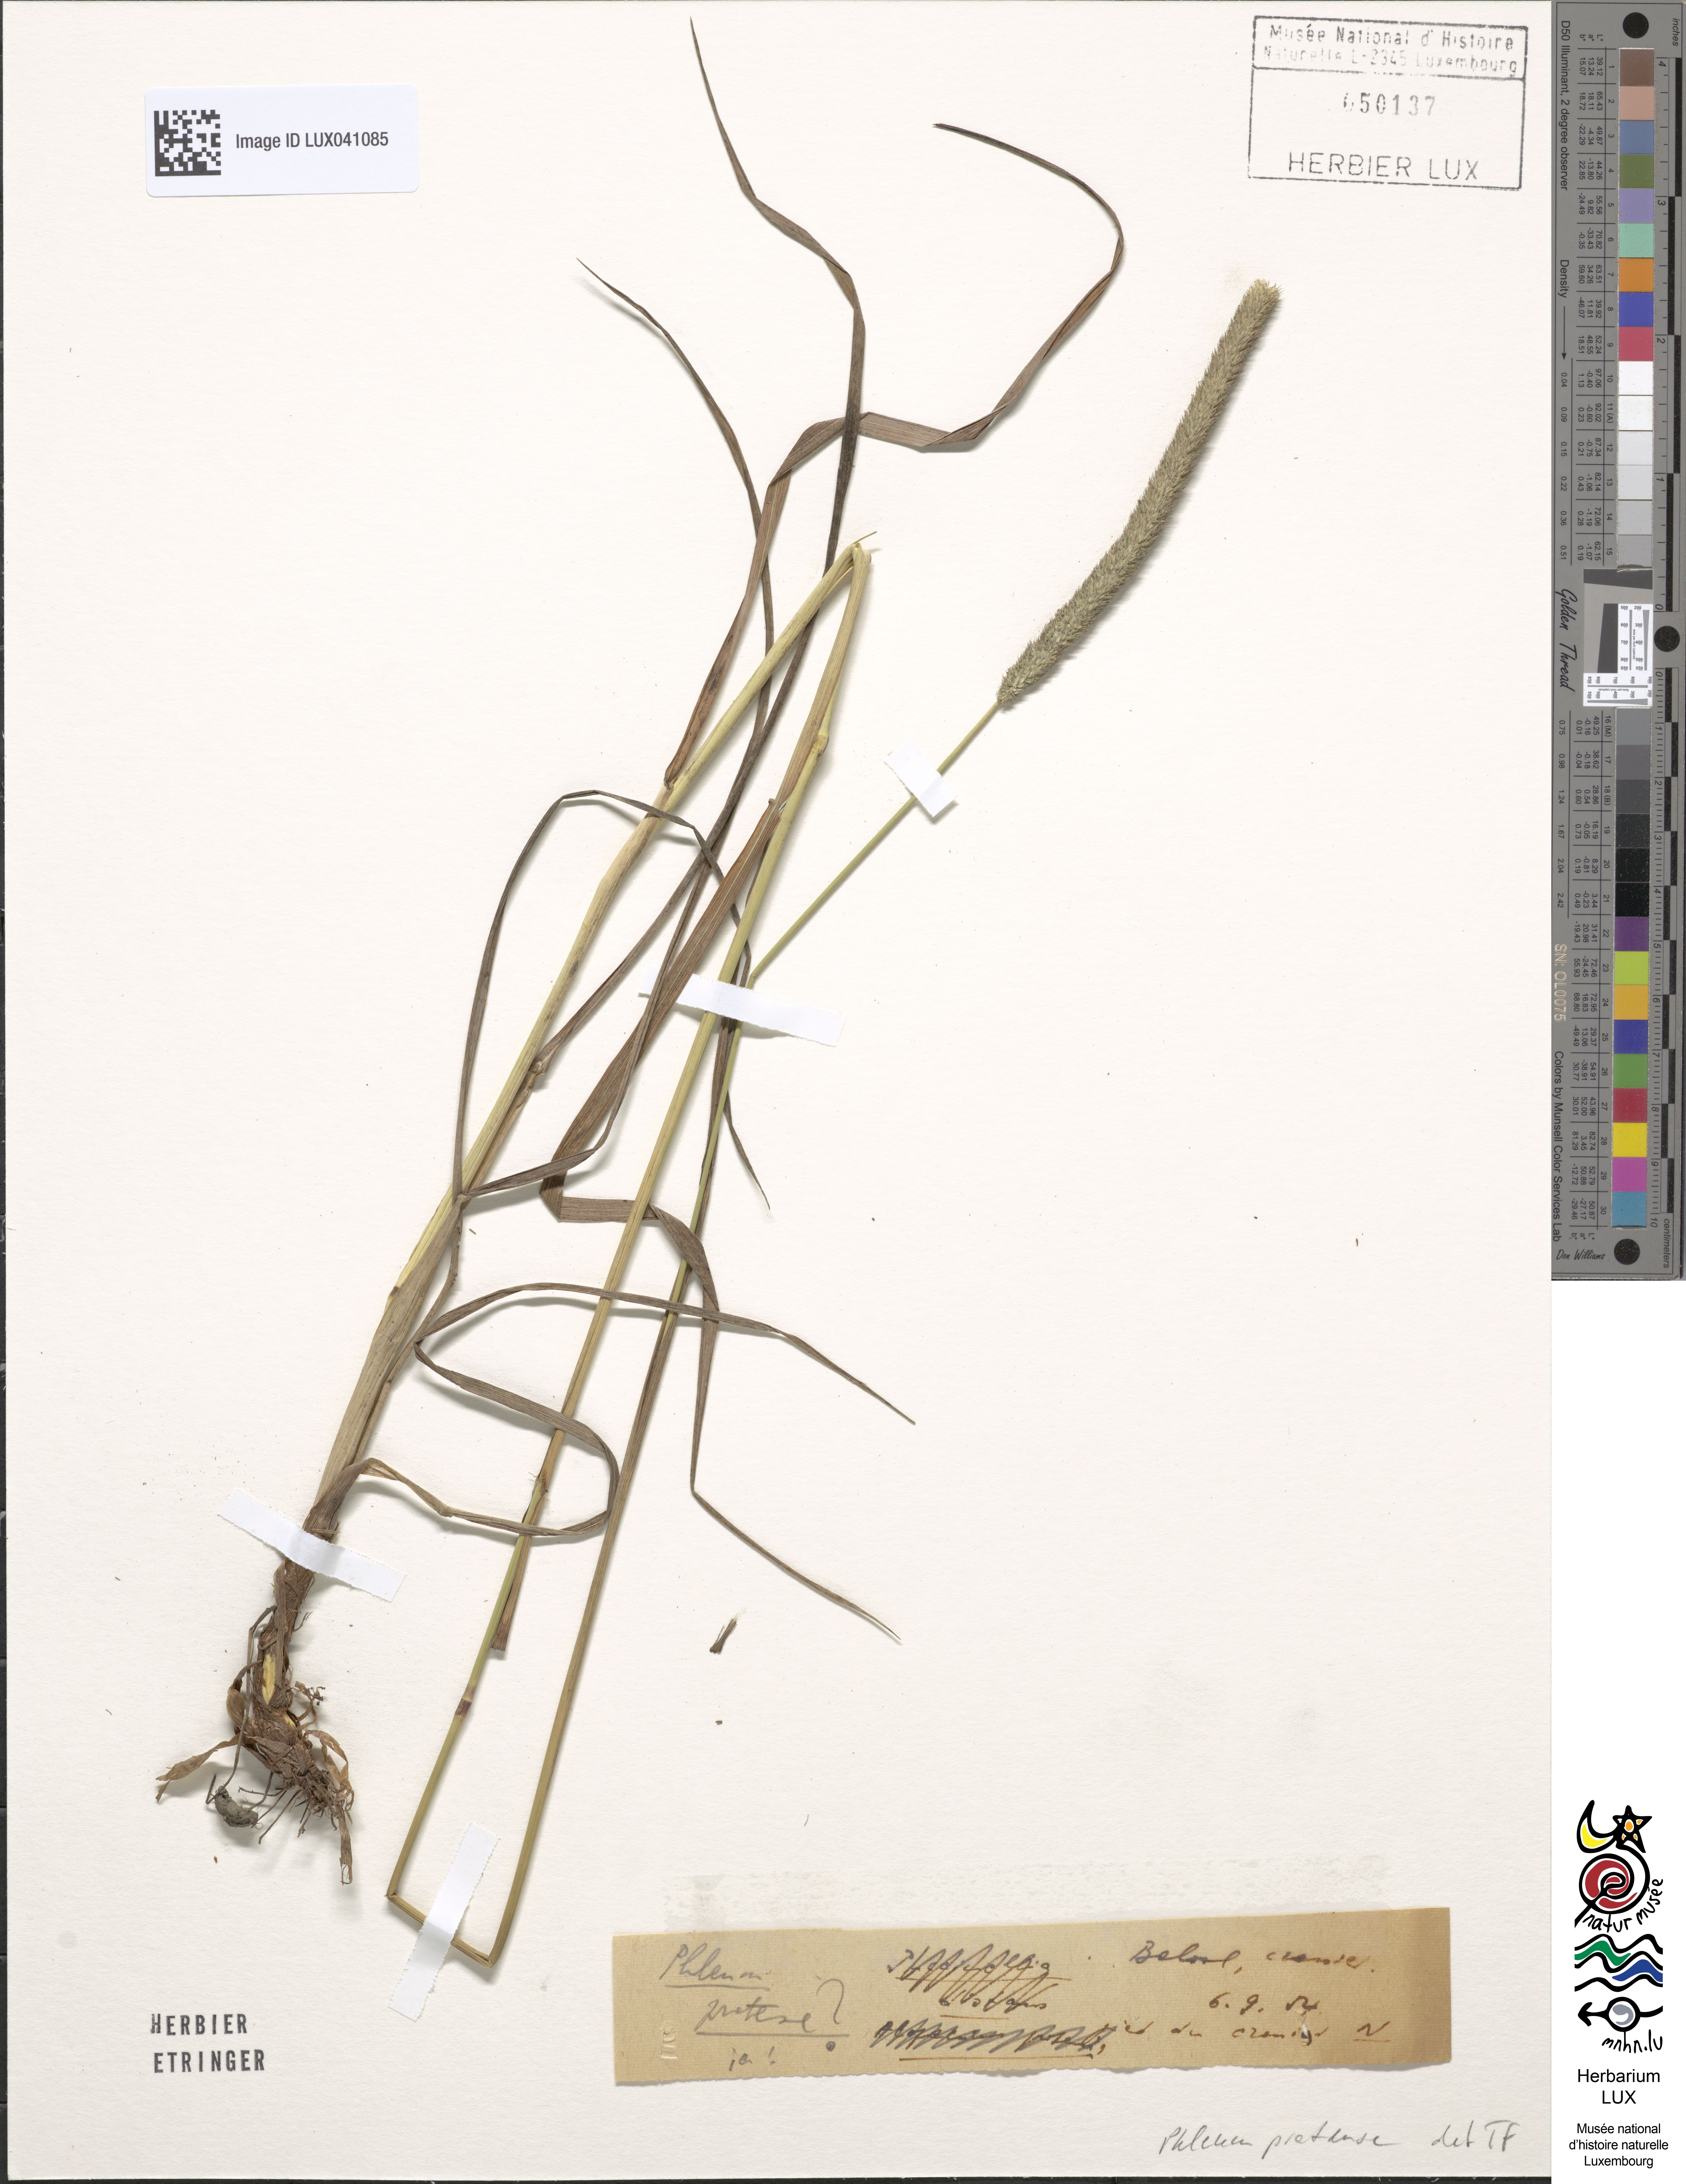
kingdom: Plantae
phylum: Tracheophyta
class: Liliopsida
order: Poales
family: Poaceae
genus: Phleum
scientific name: Phleum pratense
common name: Timothy grass
